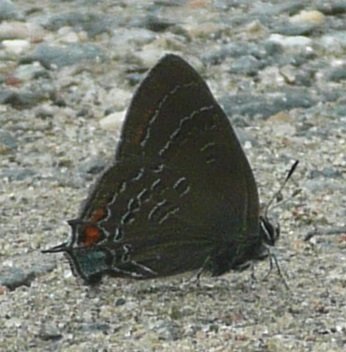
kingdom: Animalia
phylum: Arthropoda
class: Insecta
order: Lepidoptera
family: Lycaenidae
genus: Satyrium
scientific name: Satyrium calanus
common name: Banded Hairstreak
